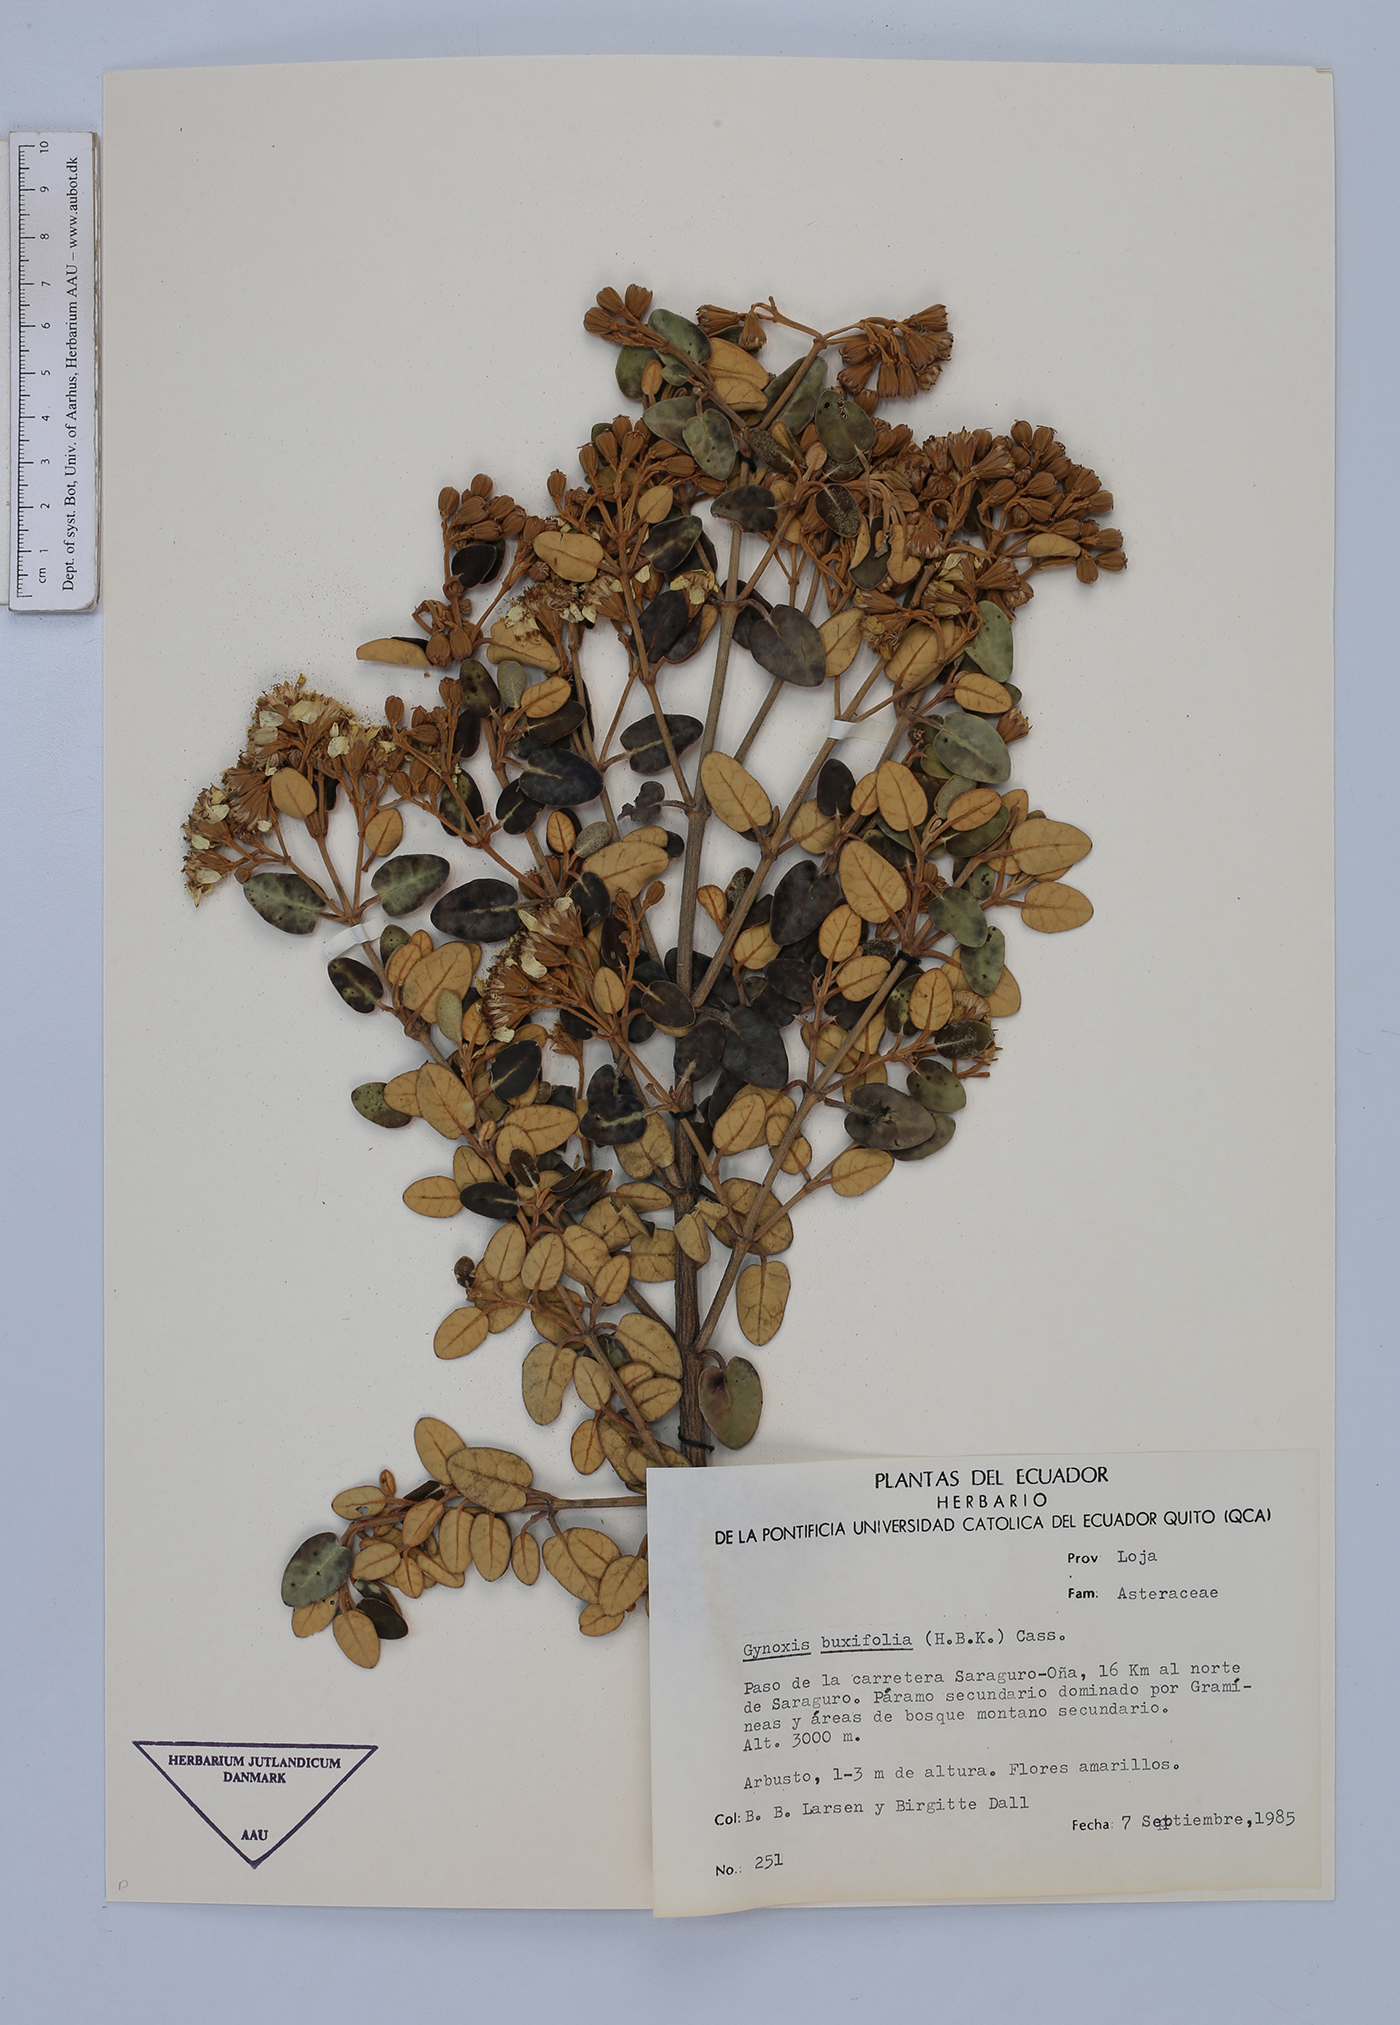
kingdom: Plantae
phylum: Tracheophyta
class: Magnoliopsida
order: Asterales
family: Asteraceae
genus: Gynoxys
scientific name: Gynoxys buxifolia
